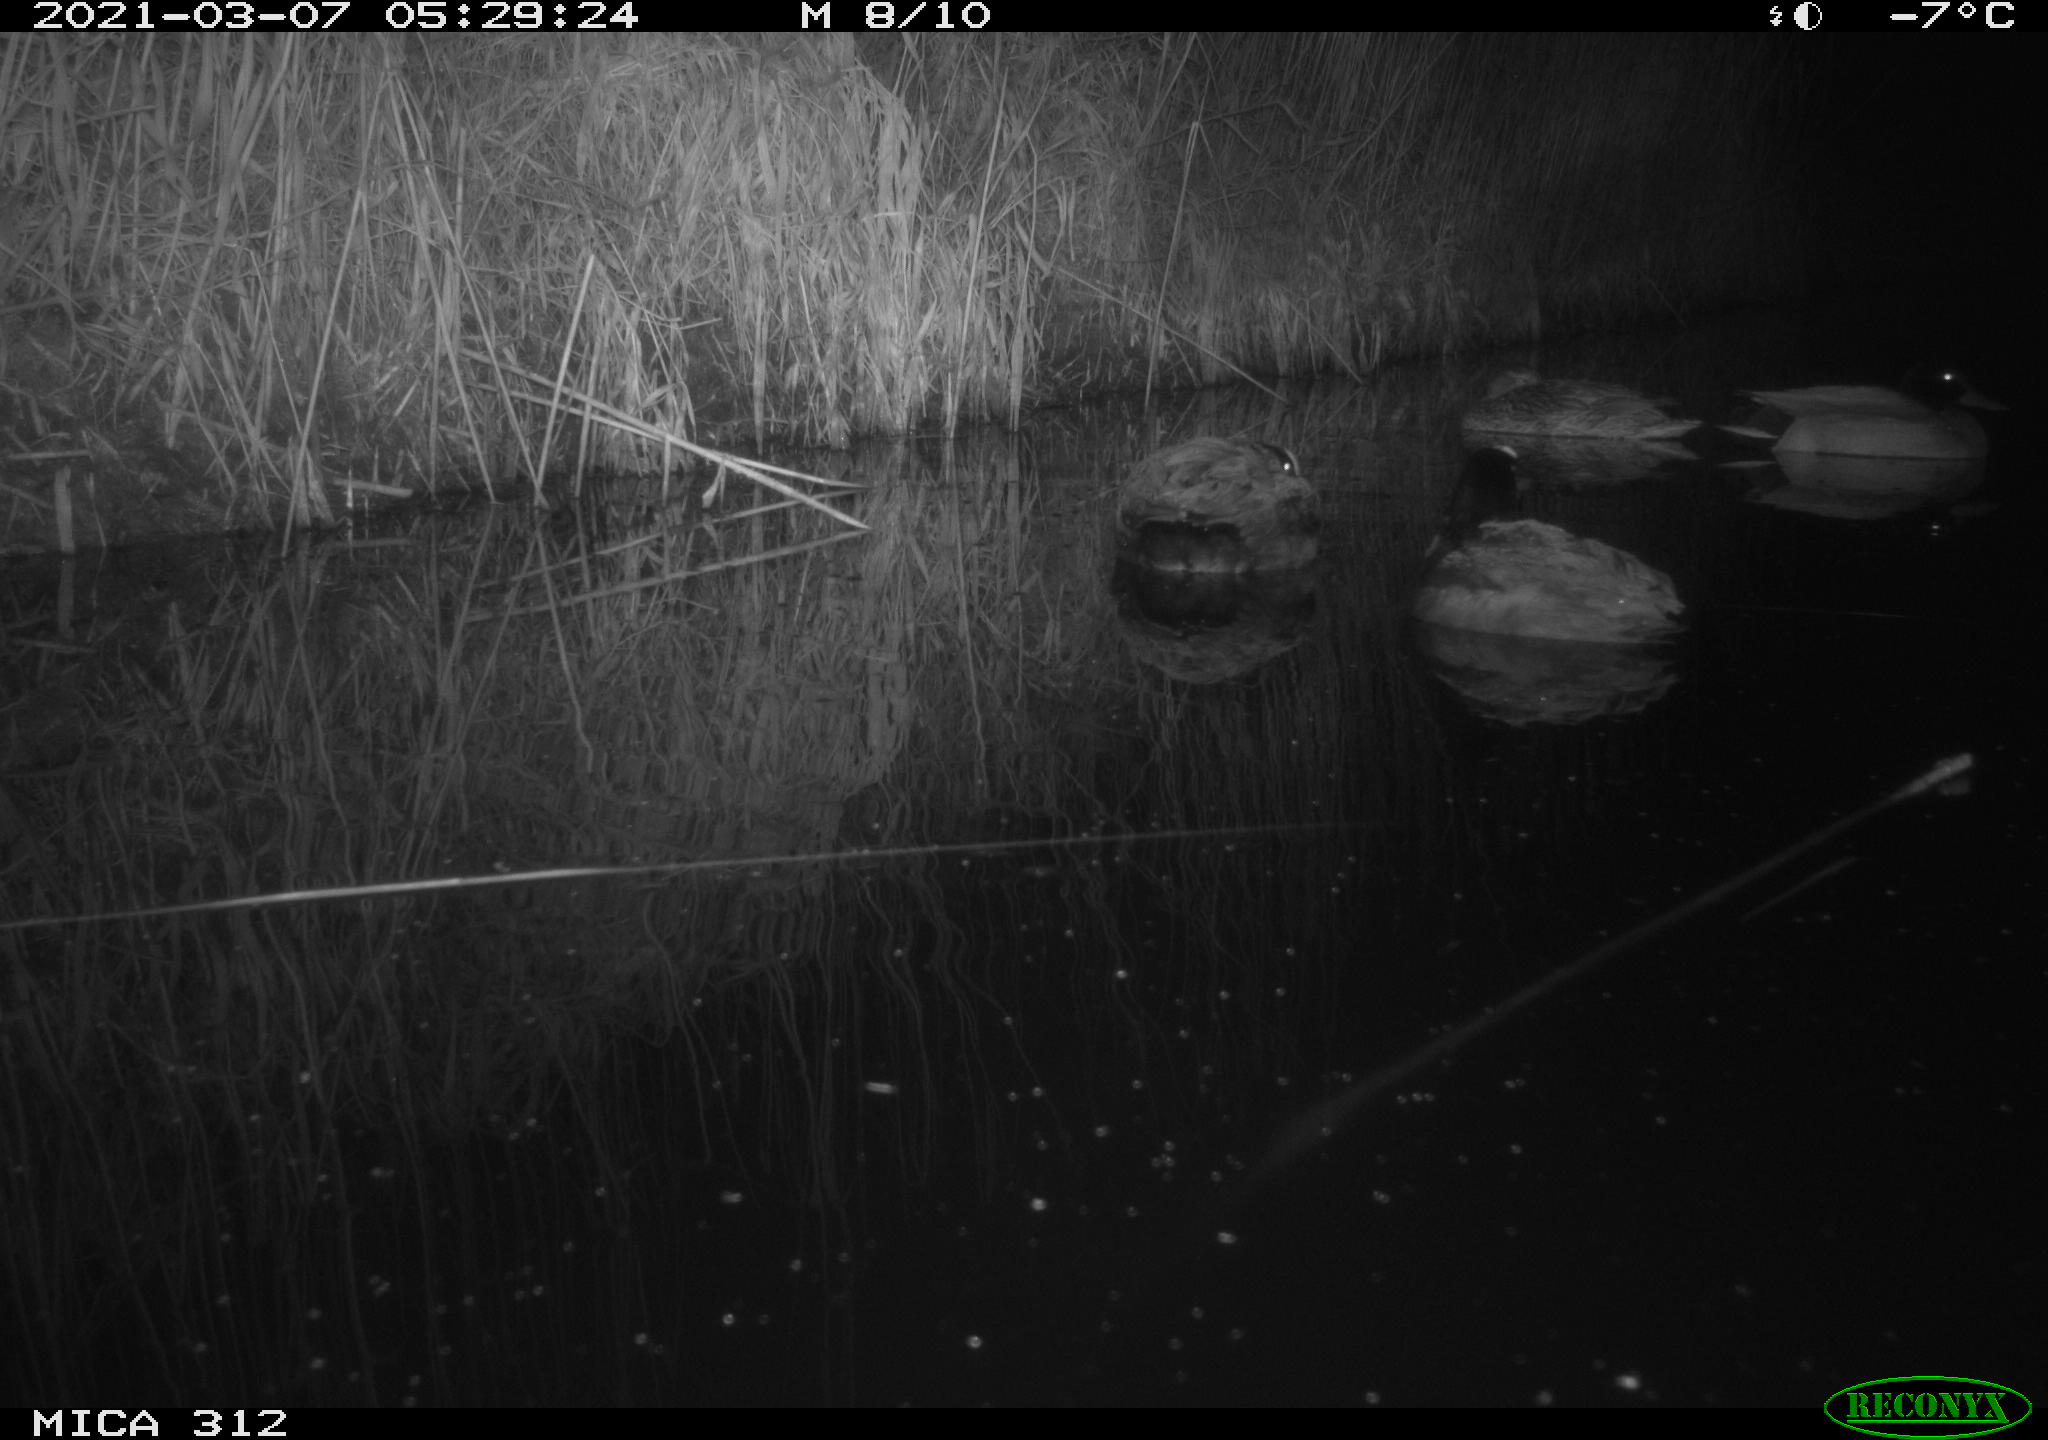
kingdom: Animalia
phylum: Chordata
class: Aves
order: Anseriformes
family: Anatidae
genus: Anas
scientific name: Anas platyrhynchos
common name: Mallard
